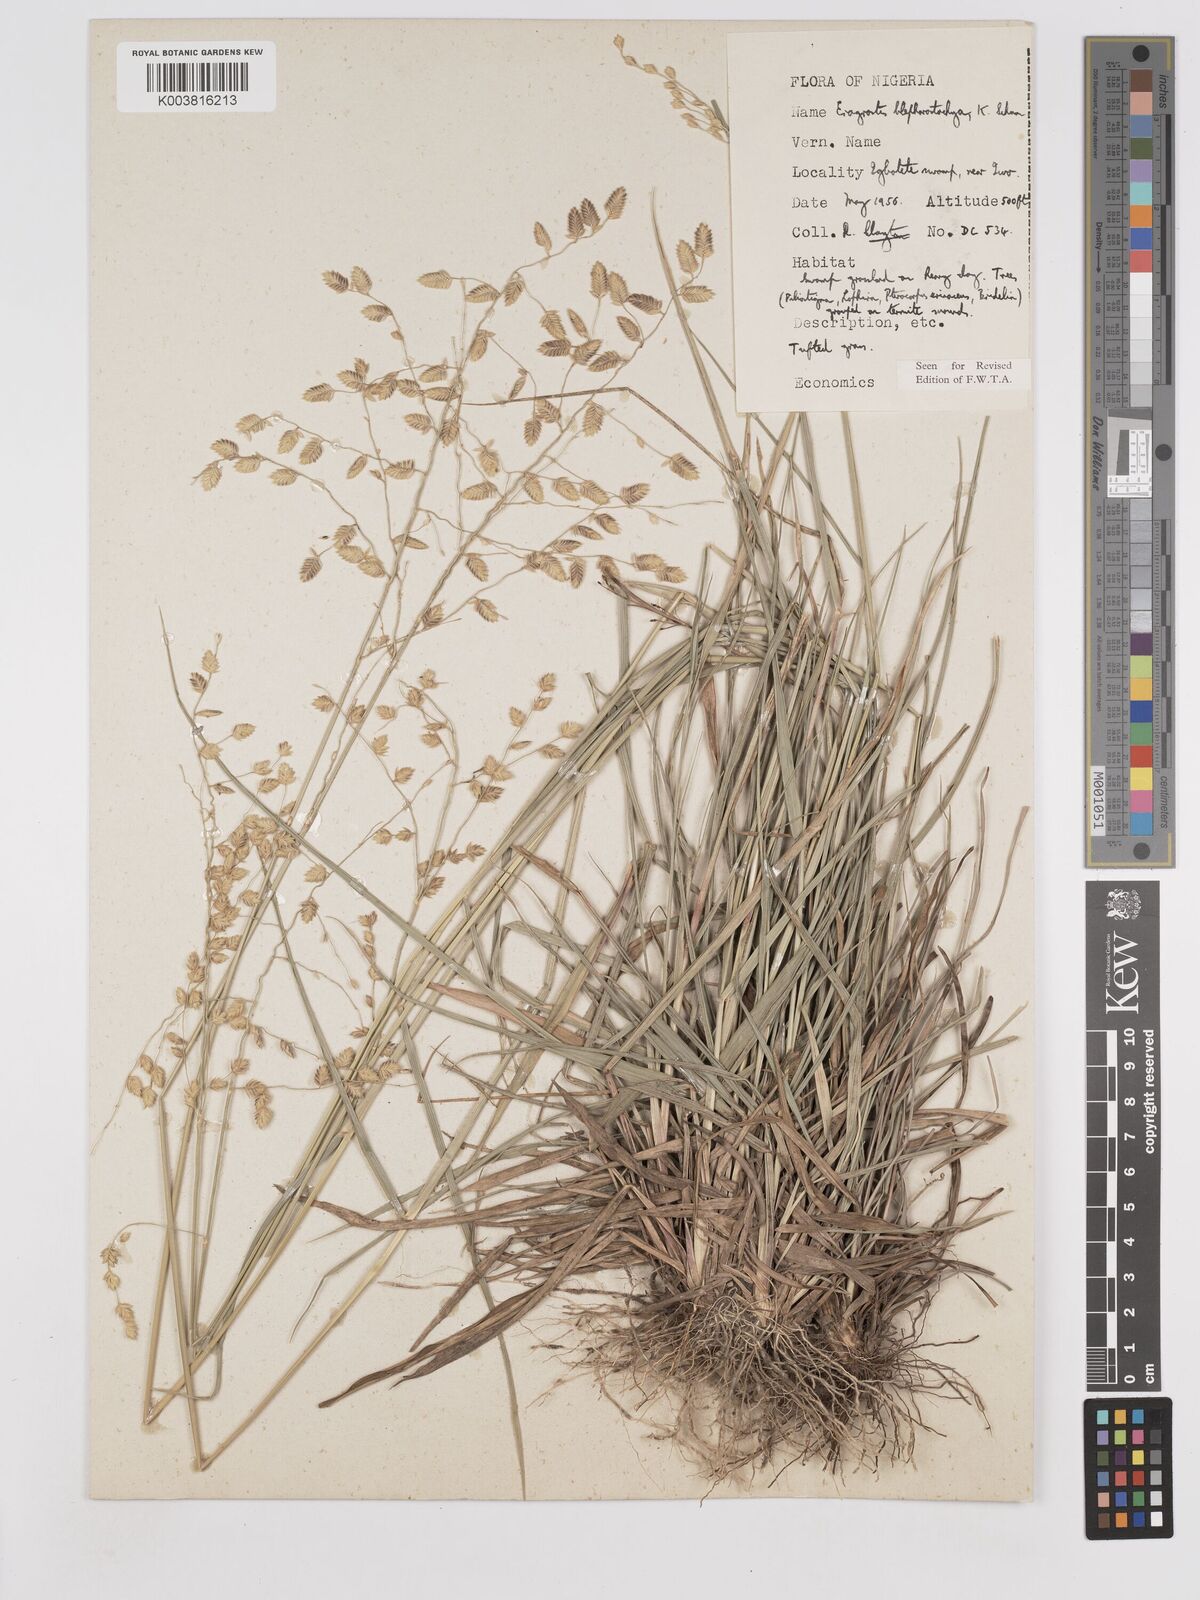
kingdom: Plantae
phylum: Tracheophyta
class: Liliopsida
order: Poales
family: Poaceae
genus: Eragrostis
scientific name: Eragrostis blepharostachya
